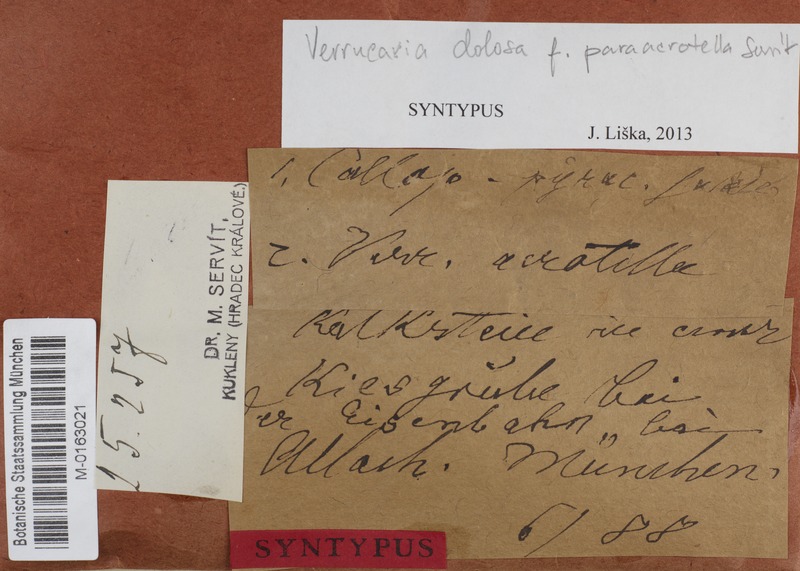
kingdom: Fungi
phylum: Ascomycota
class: Eurotiomycetes
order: Verrucariales
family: Verrucariaceae
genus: Verrucaria
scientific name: Verrucaria acrotella
